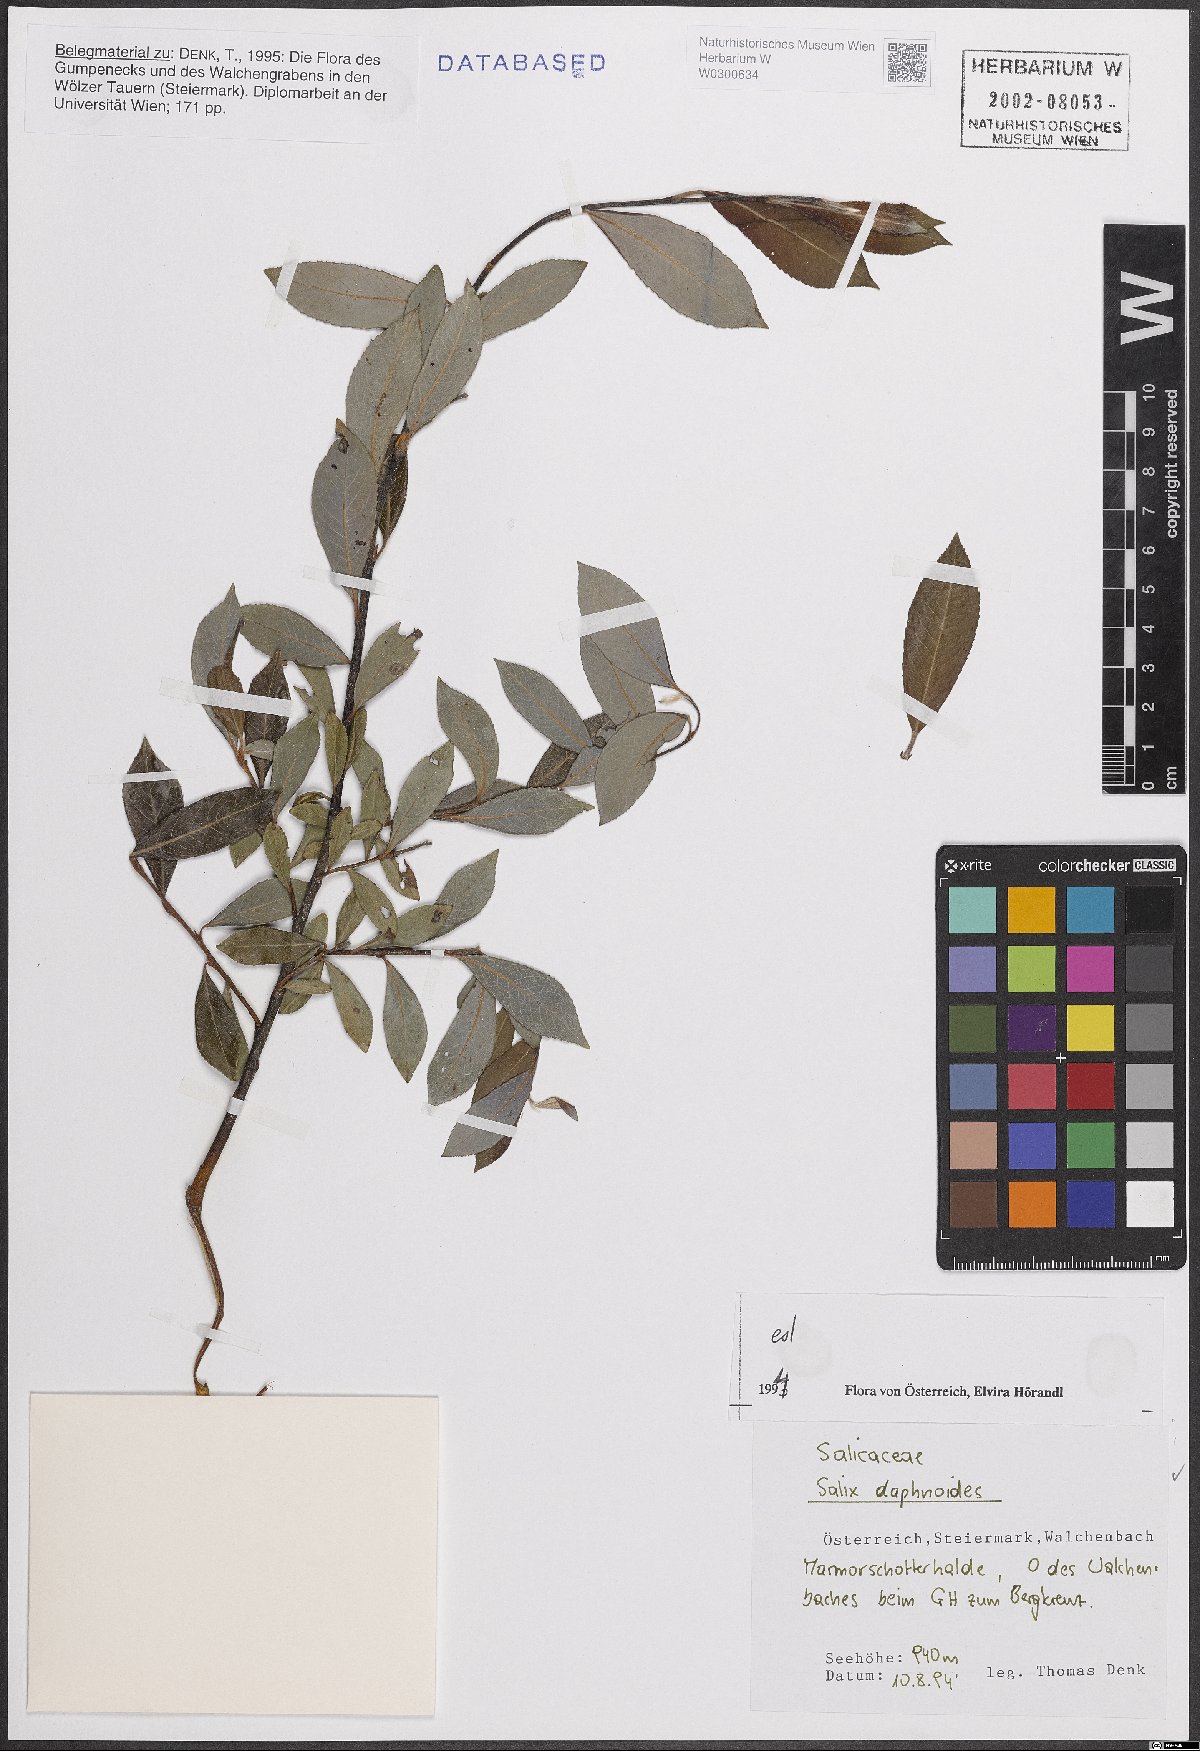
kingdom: Plantae
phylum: Tracheophyta
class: Magnoliopsida
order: Malpighiales
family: Salicaceae
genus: Salix
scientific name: Salix daphnoides
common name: European violet-willow
